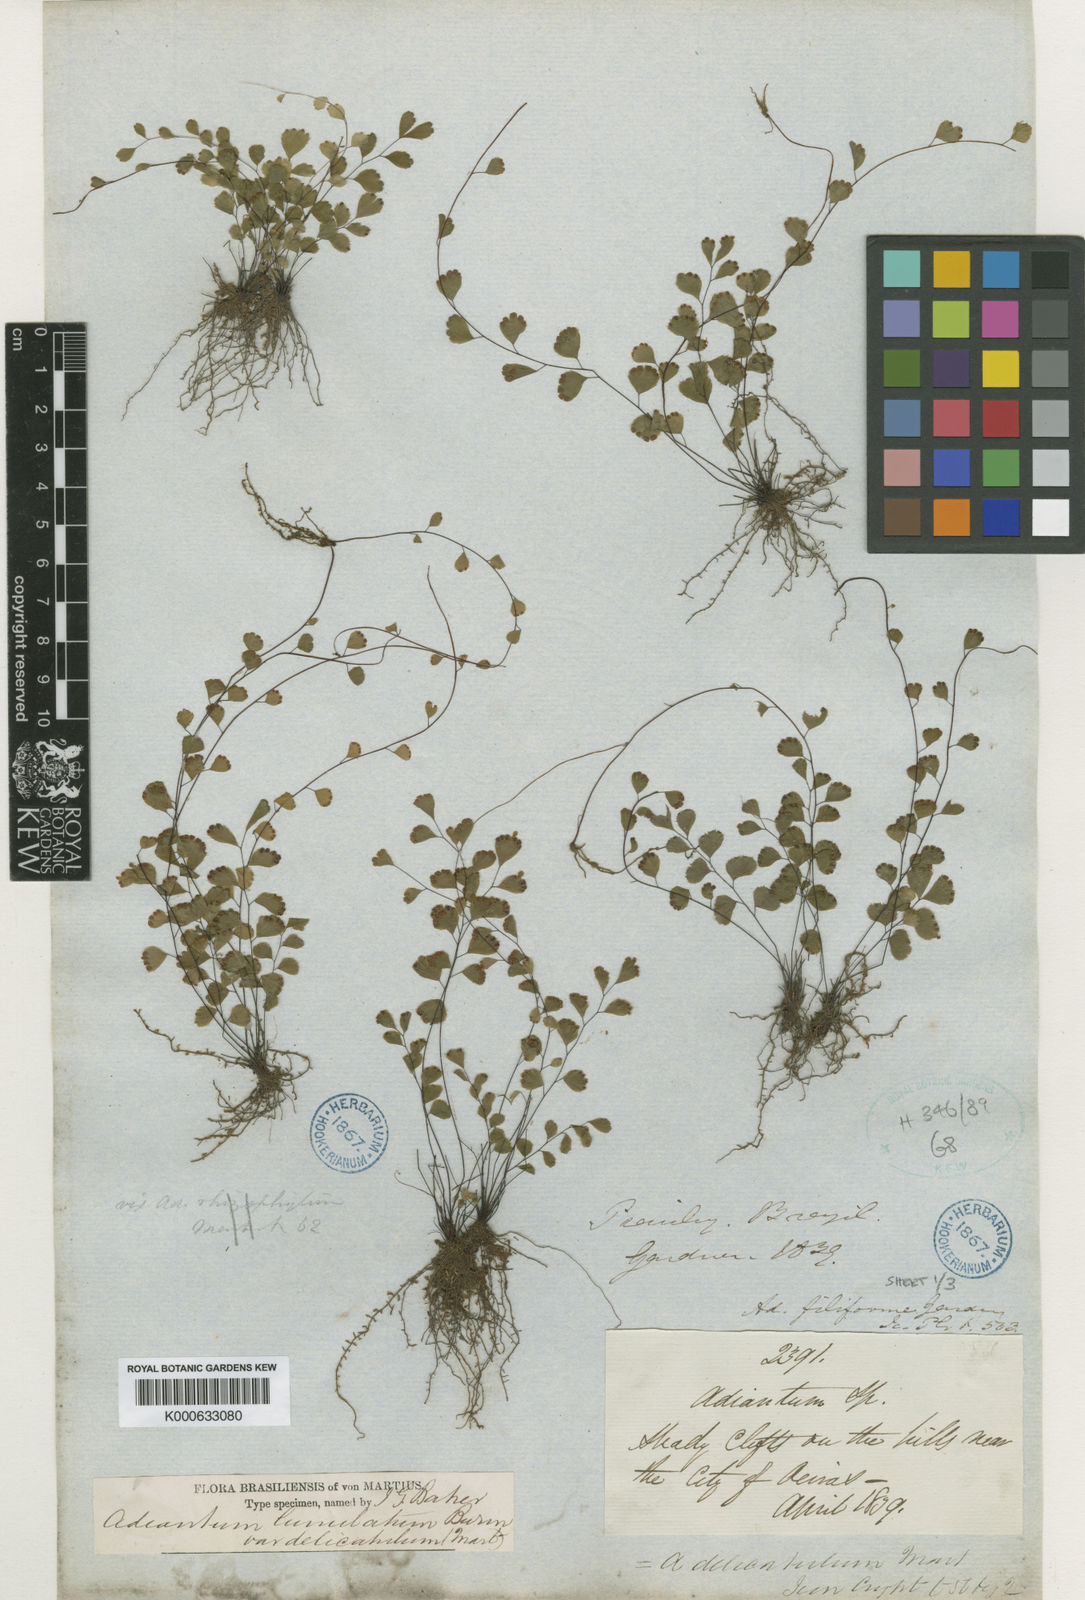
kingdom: Plantae
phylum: Tracheophyta
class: Polypodiopsida
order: Polypodiales
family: Pteridaceae
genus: Adiantum
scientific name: Adiantum delicatulum
